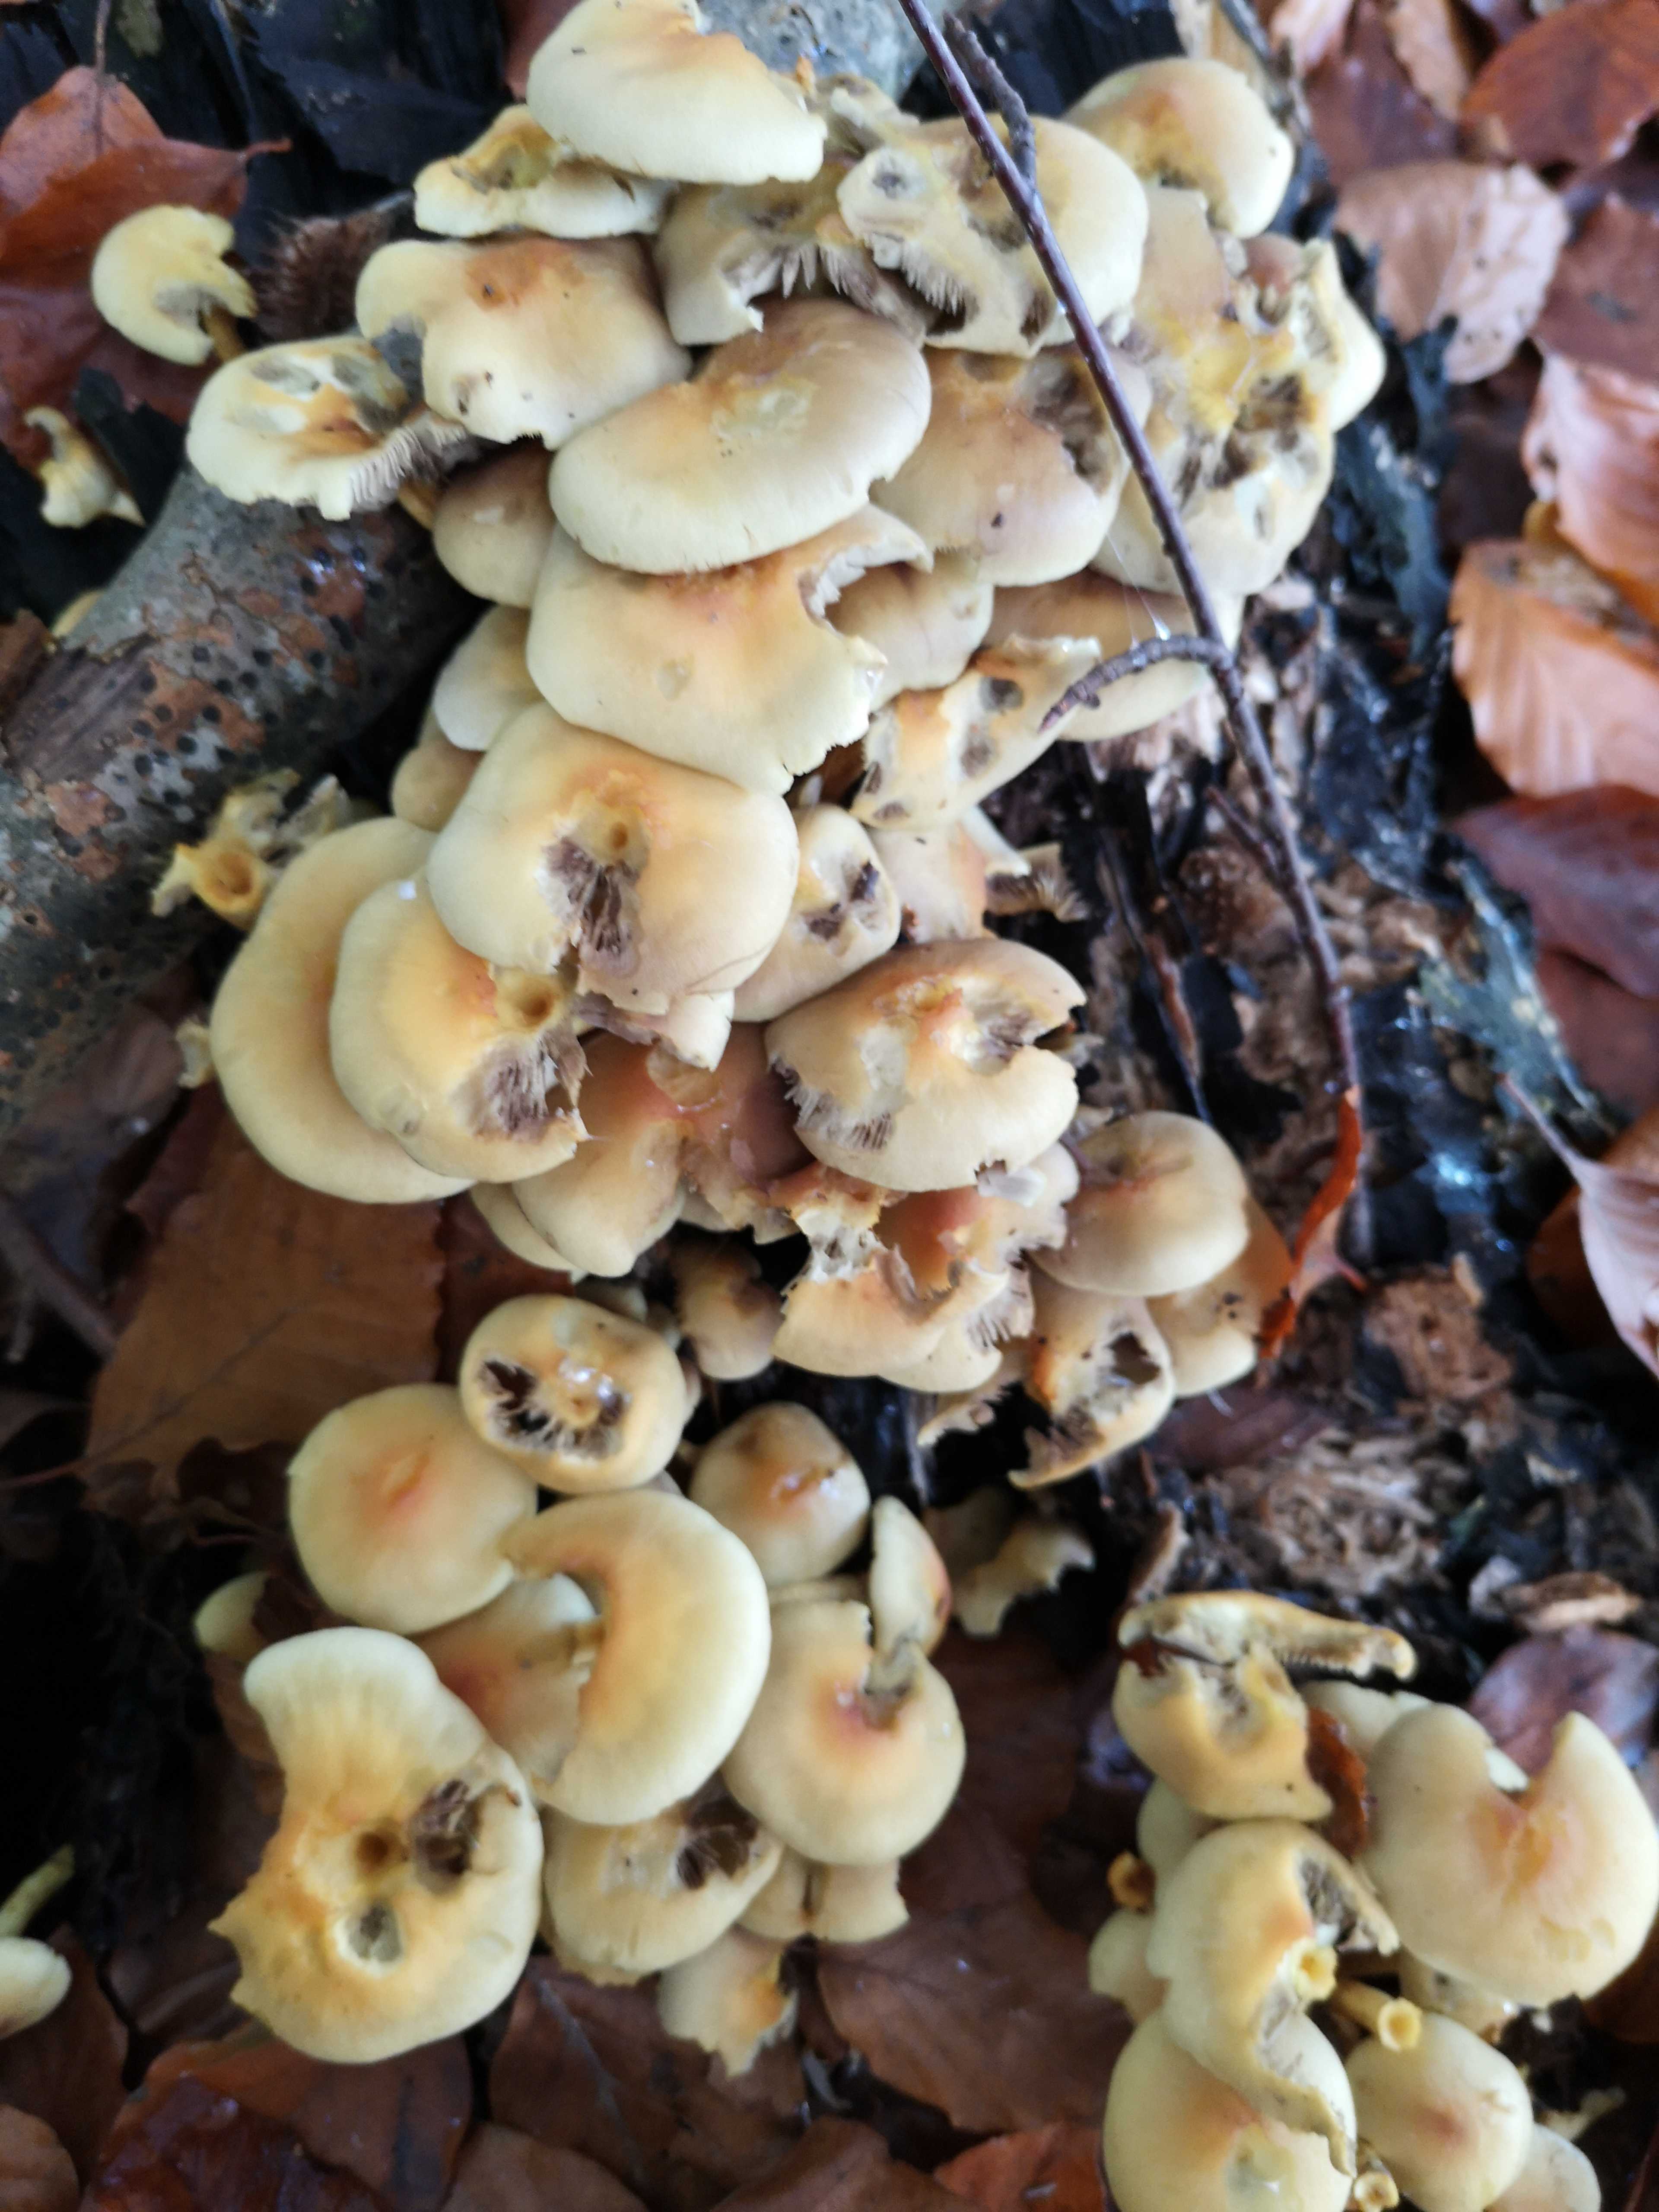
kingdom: Fungi
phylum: Basidiomycota
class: Agaricomycetes
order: Agaricales
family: Strophariaceae
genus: Hypholoma
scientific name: Hypholoma fasciculare
